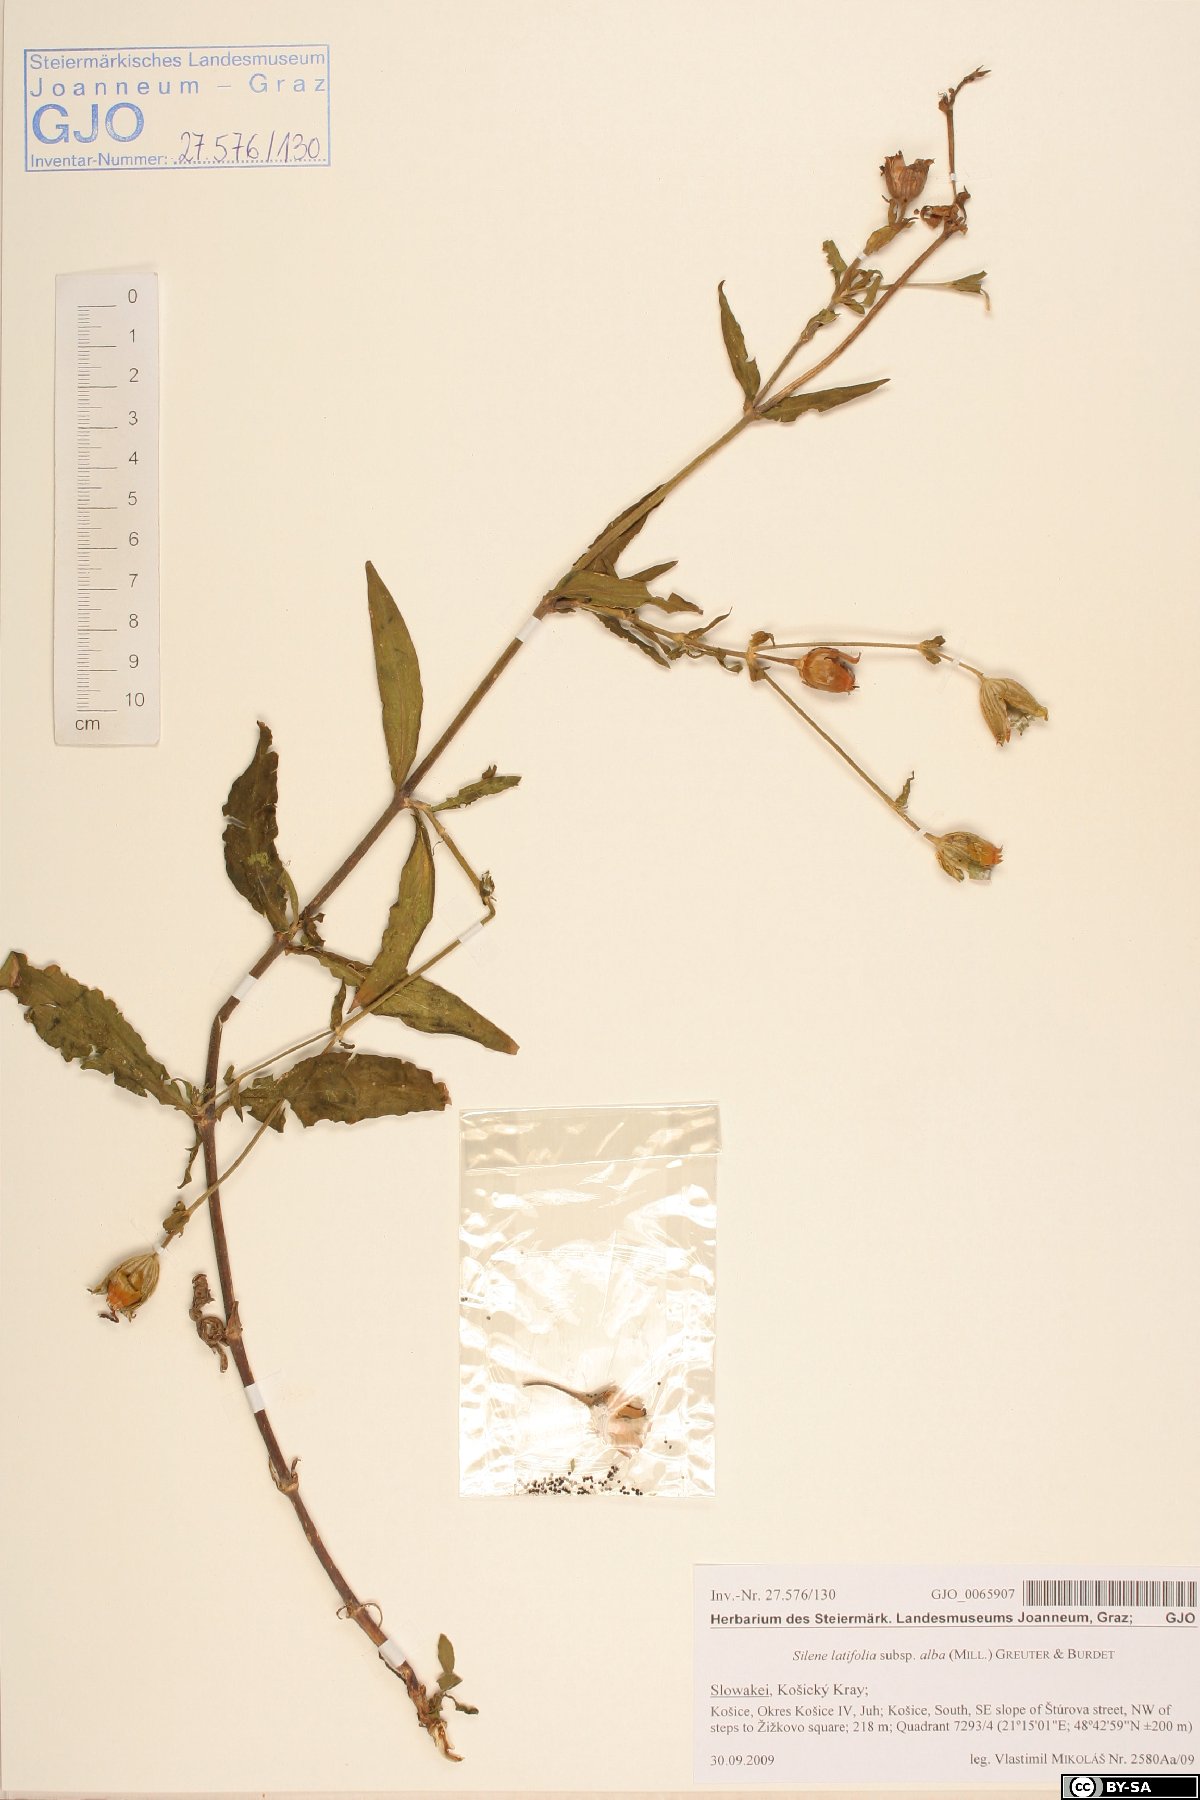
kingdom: Plantae
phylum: Tracheophyta
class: Magnoliopsida
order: Caryophyllales
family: Caryophyllaceae
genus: Silene
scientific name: Silene latifolia
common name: White campion
